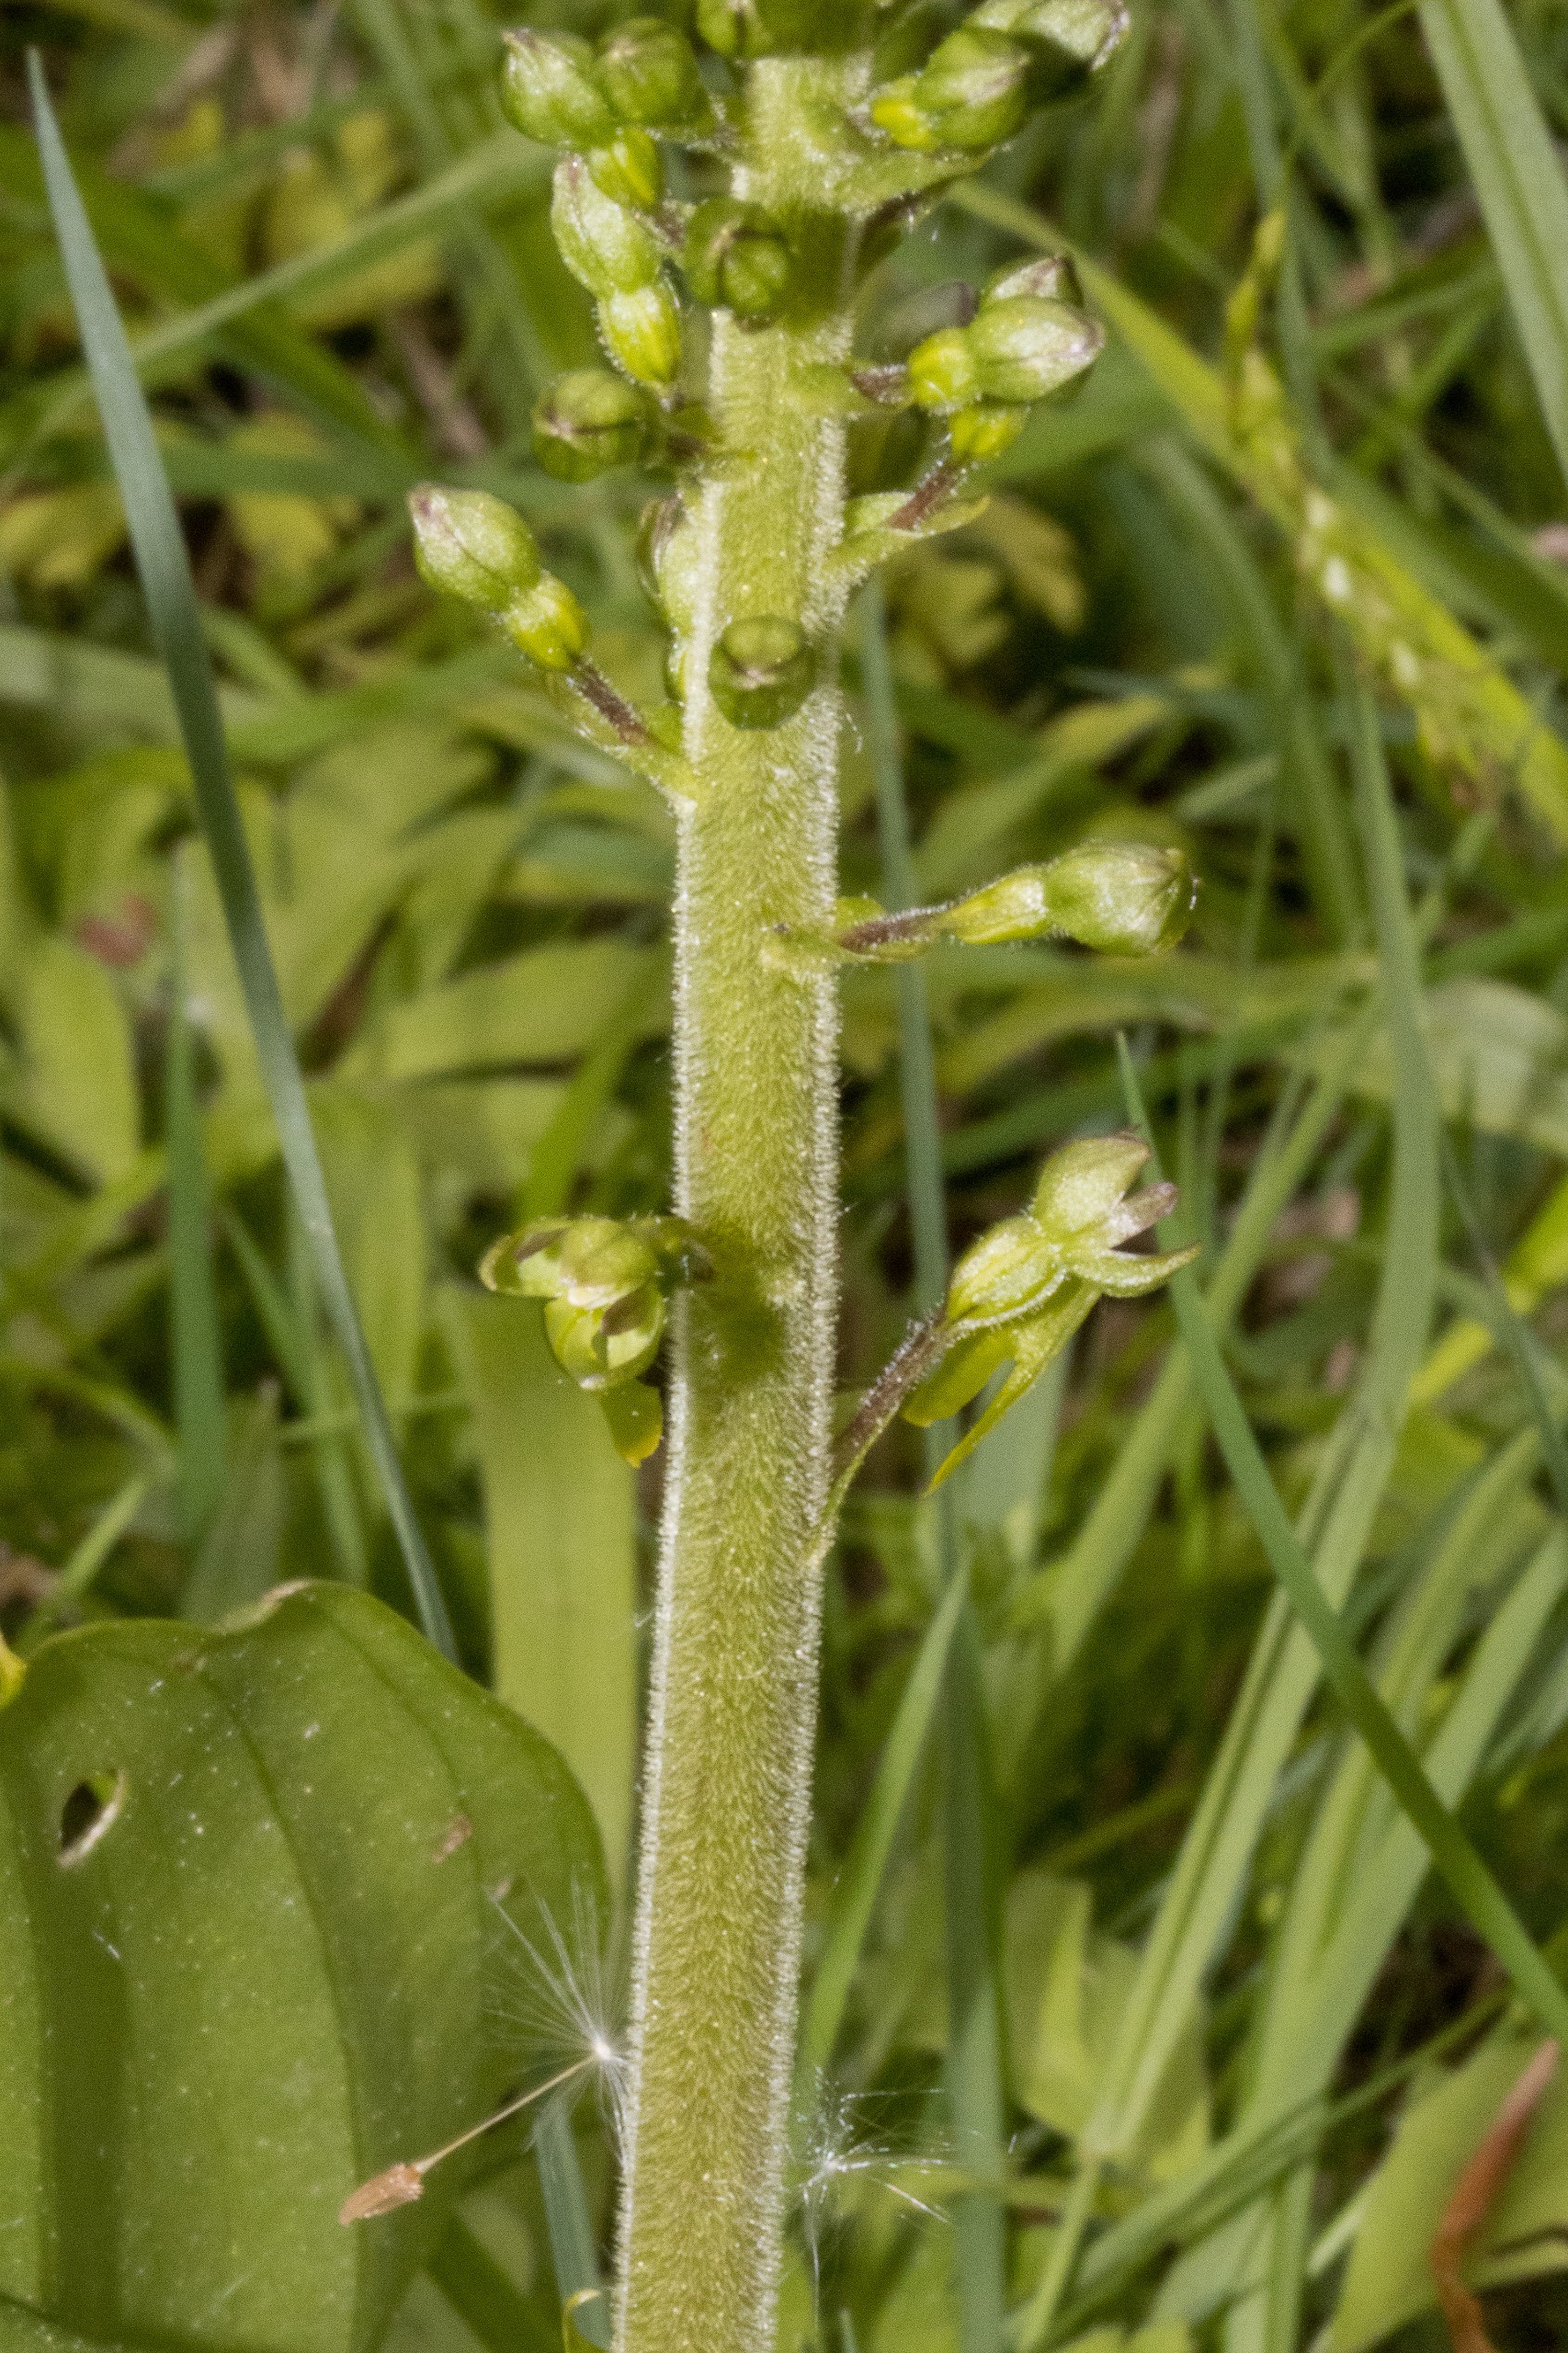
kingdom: Plantae
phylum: Tracheophyta
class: Liliopsida
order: Asparagales
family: Orchidaceae
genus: Neottia
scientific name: Neottia ovata
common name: Ægbladet fliglæbe
